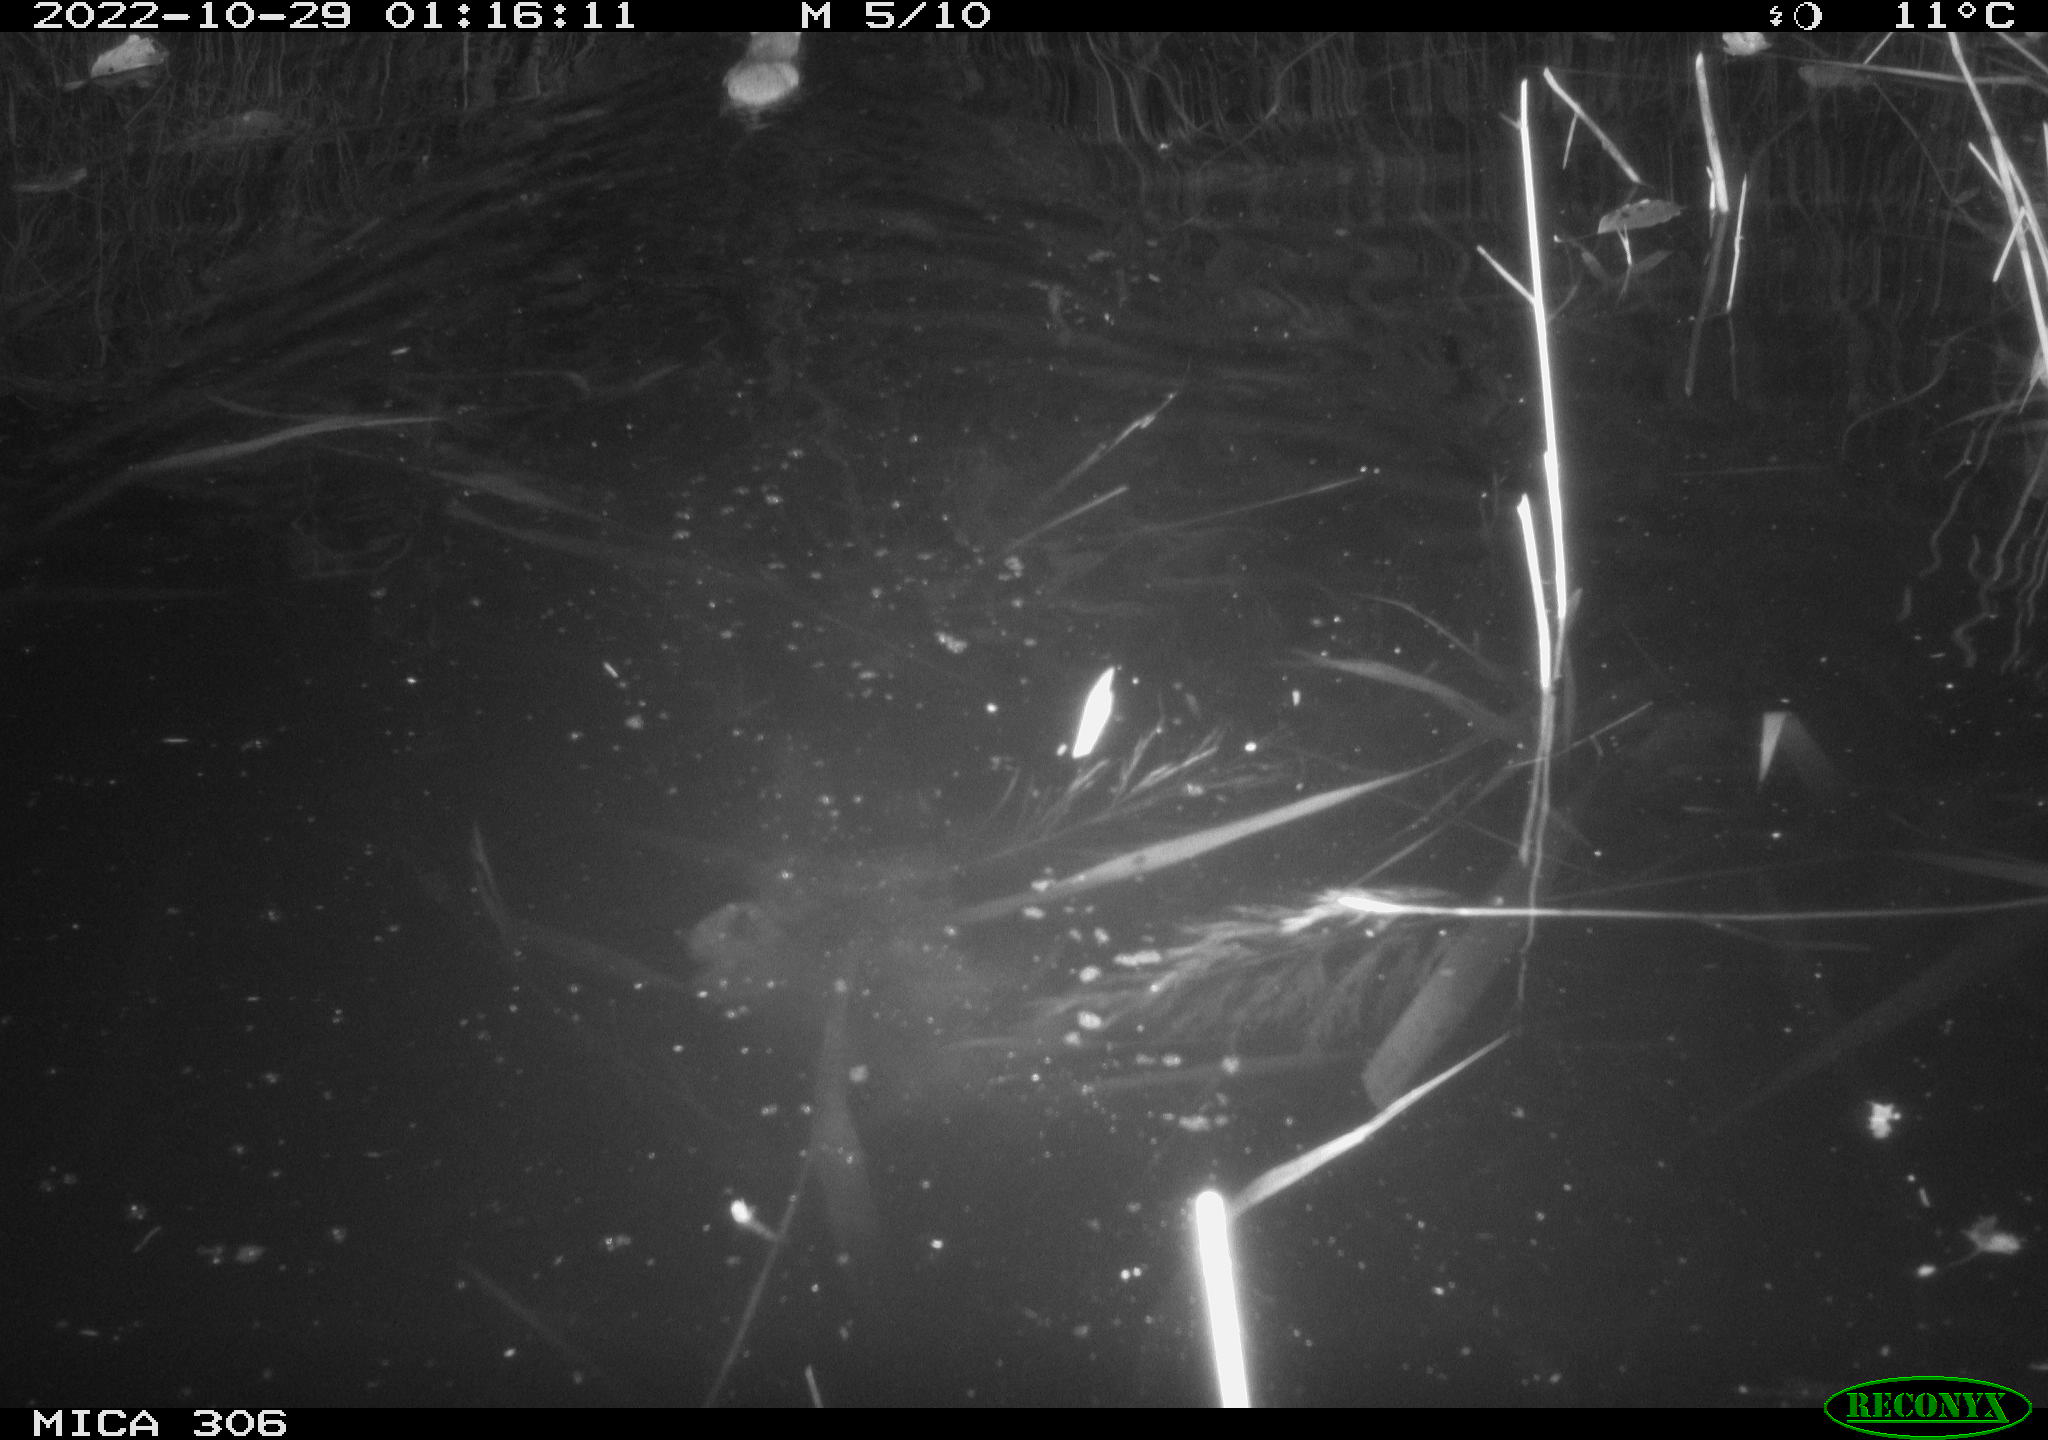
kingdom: Animalia
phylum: Chordata
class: Mammalia
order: Rodentia
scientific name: Rodentia
